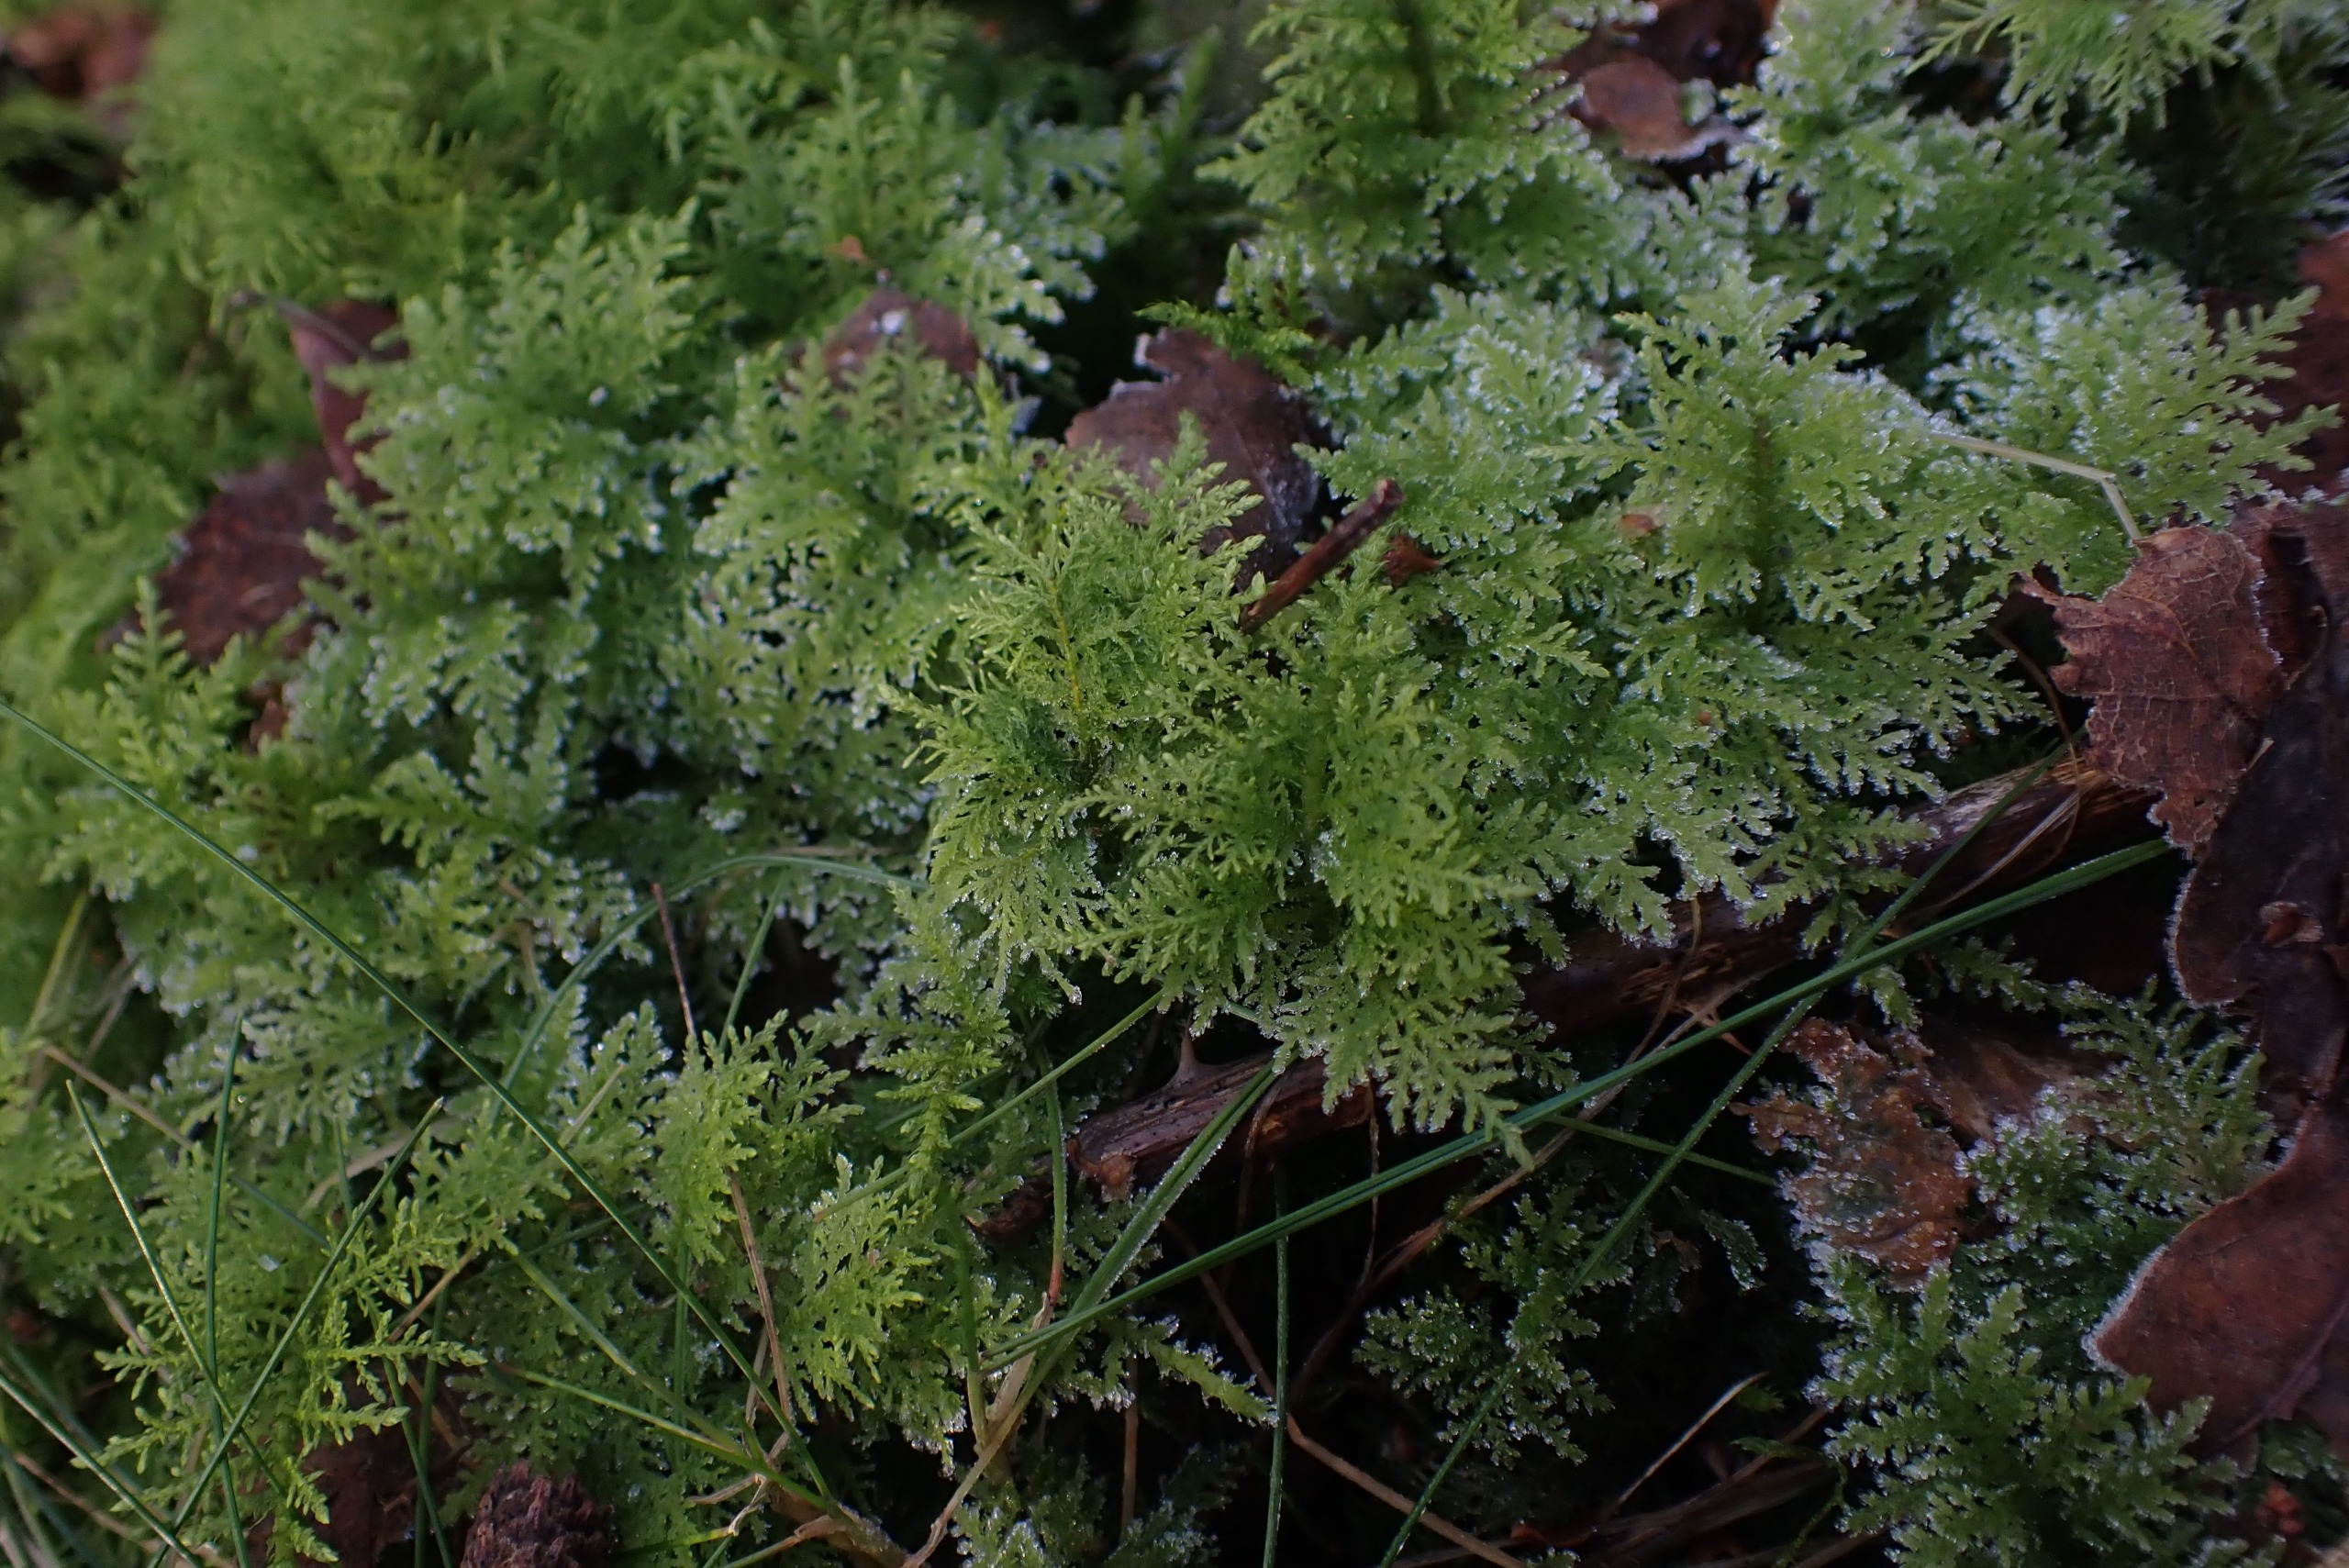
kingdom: Plantae
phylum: Bryophyta
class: Bryopsida
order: Hypnales
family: Thuidiaceae
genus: Thuidium
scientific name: Thuidium tamariscinum
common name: Pryd-bregnemos
